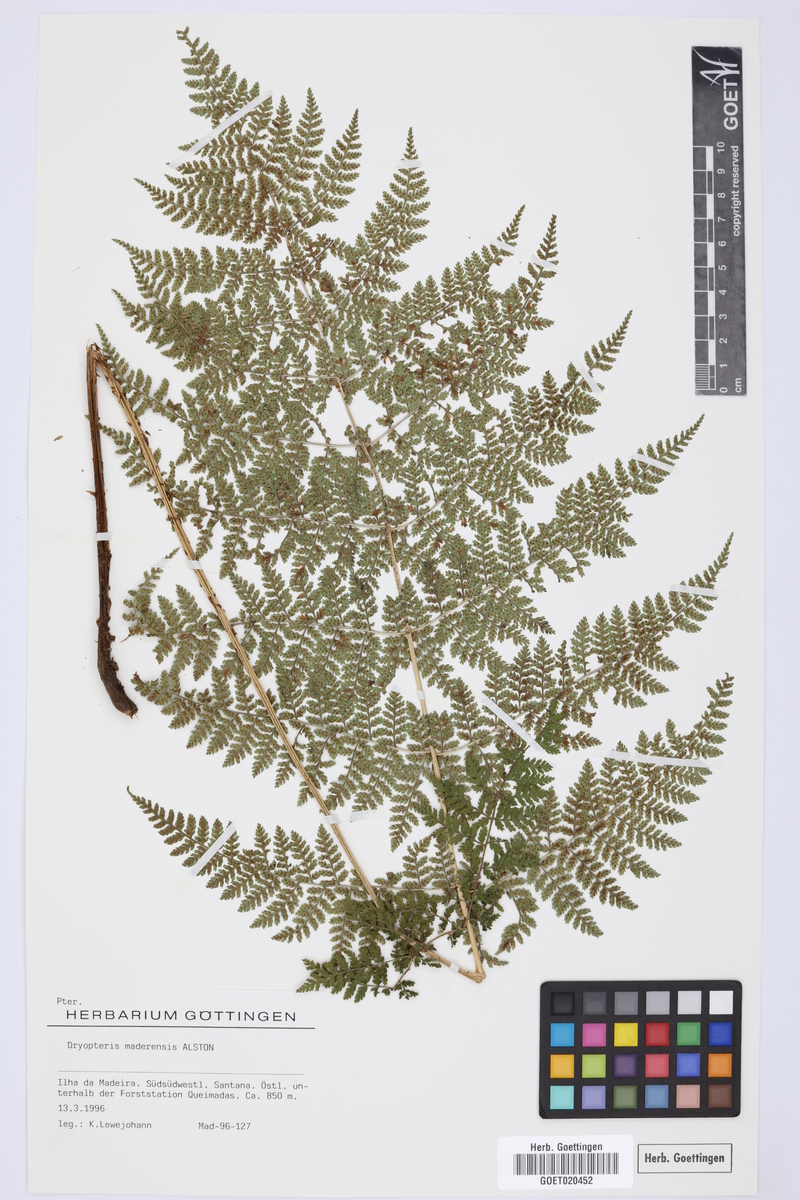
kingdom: Plantae
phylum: Tracheophyta
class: Polypodiopsida
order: Polypodiales
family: Dryopteridaceae
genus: Dryopteris
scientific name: Dryopteris intermedia
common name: Evergreen wood fern
